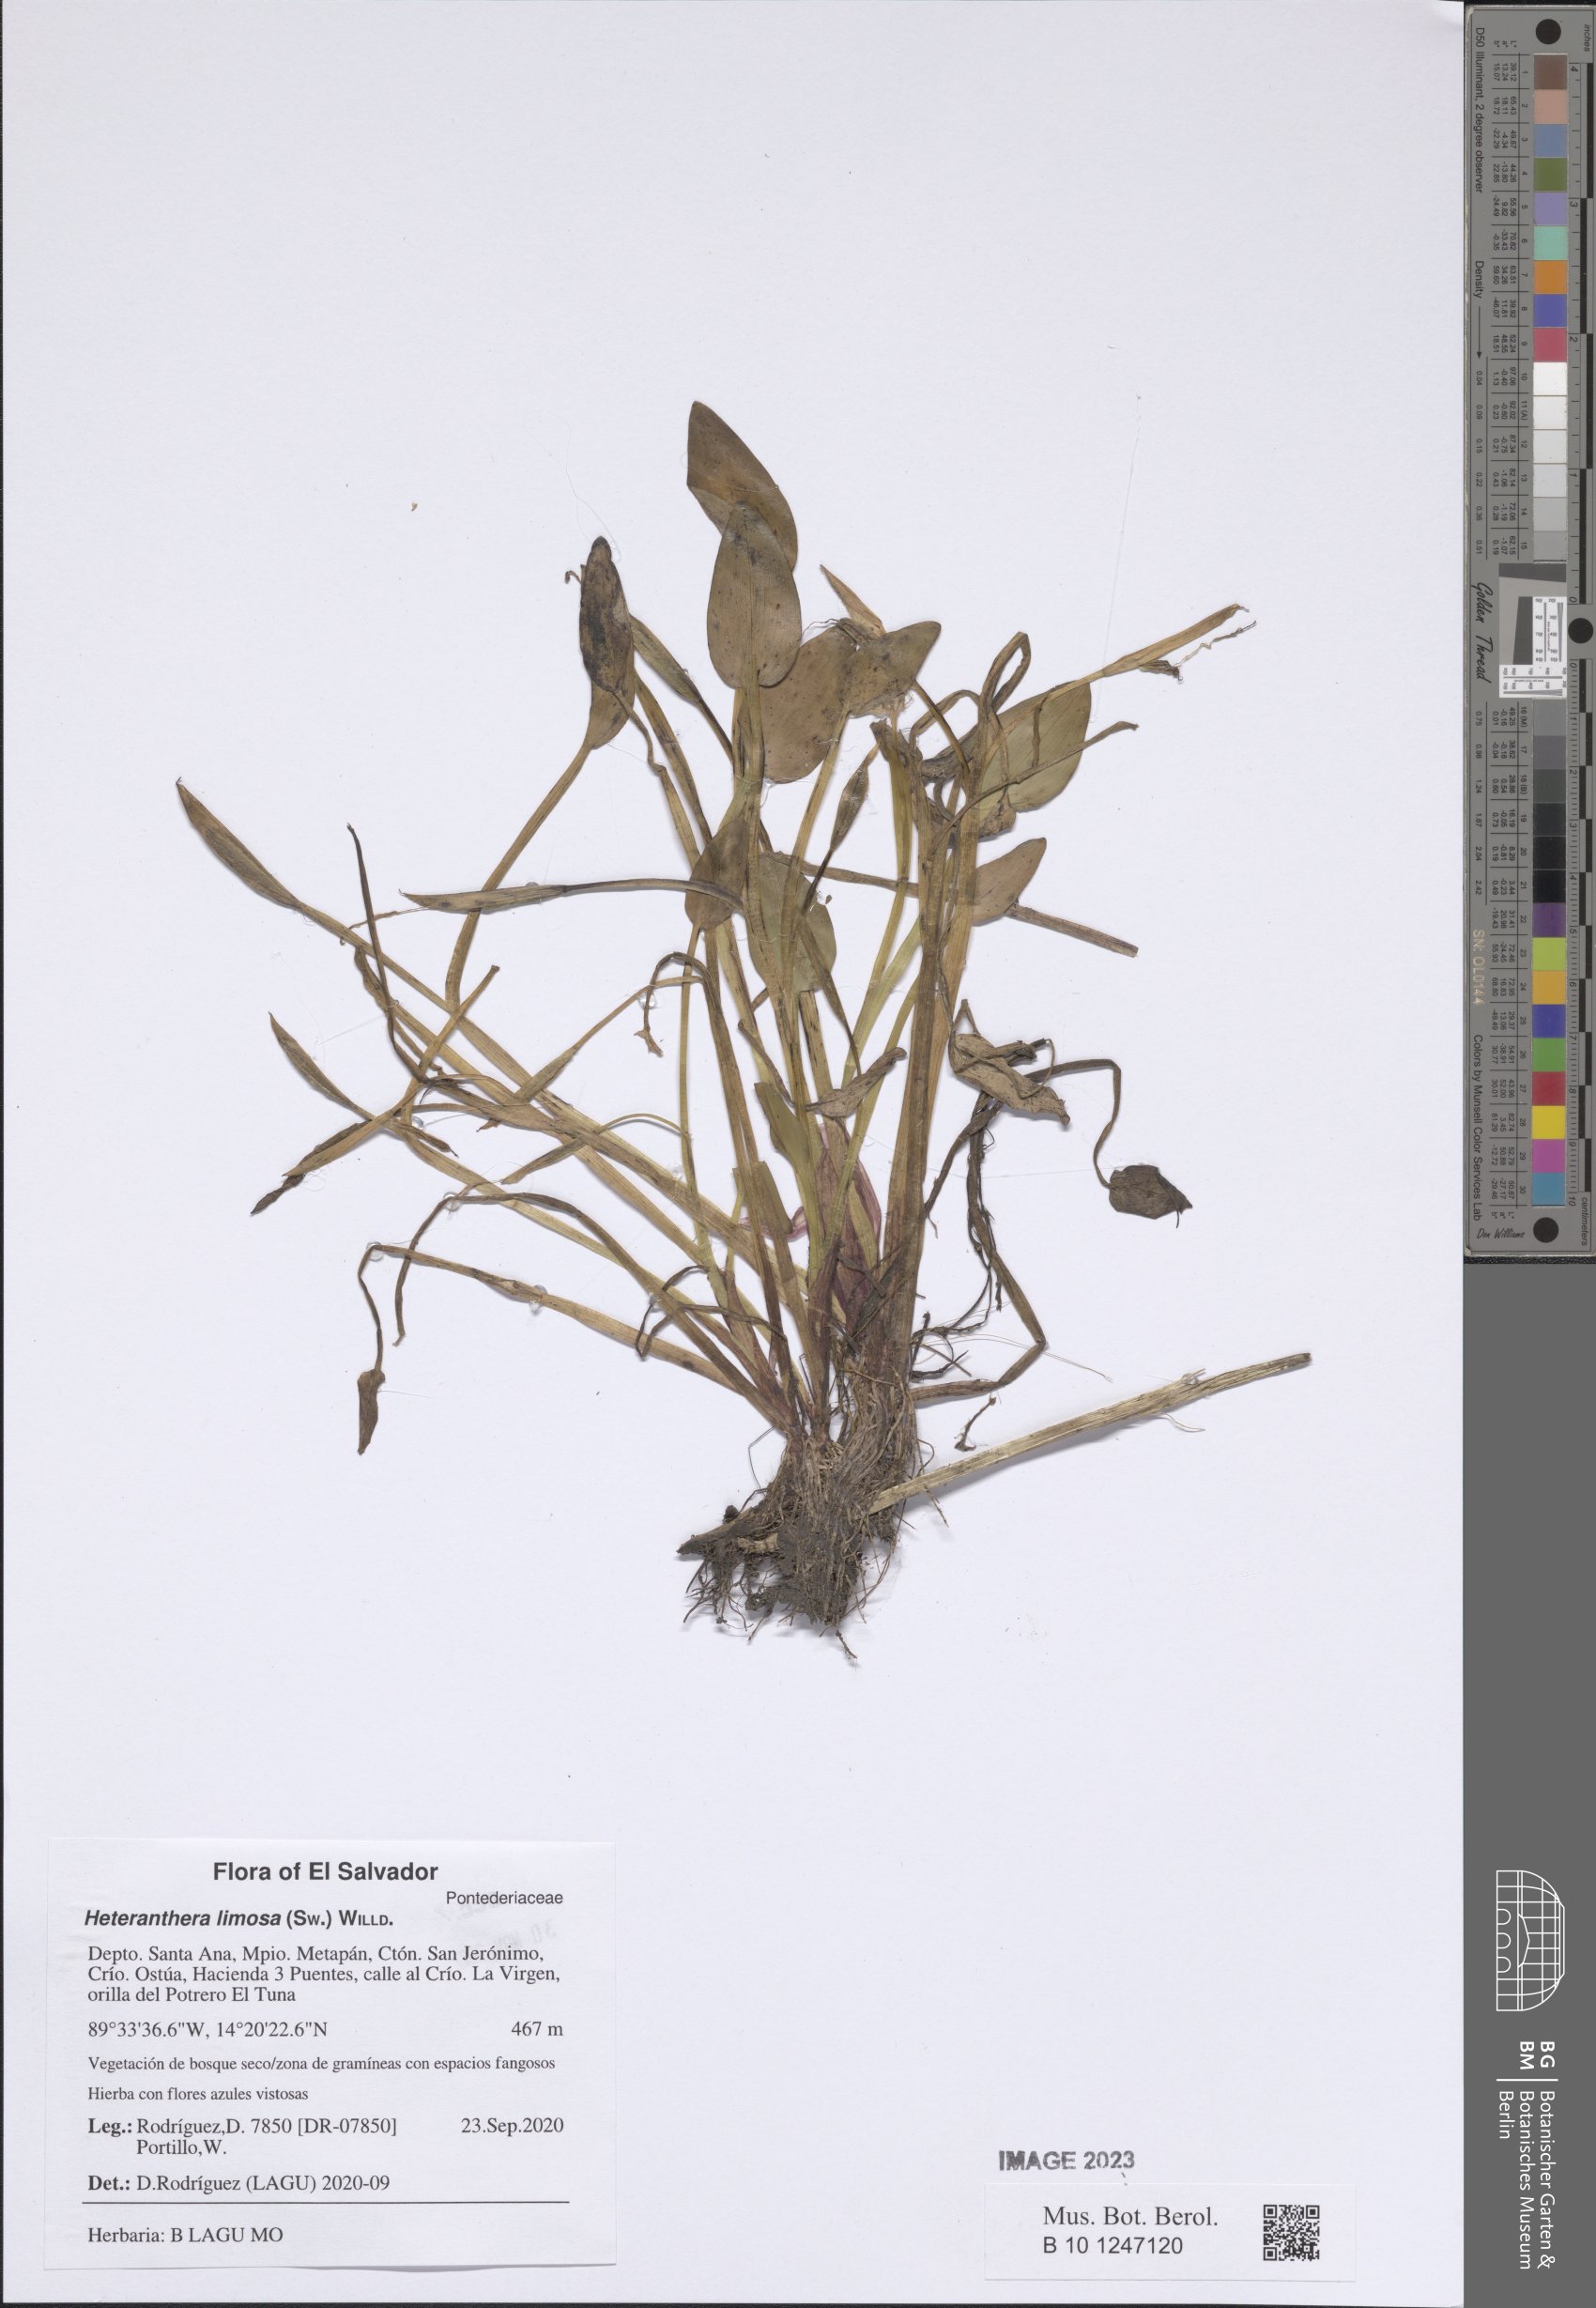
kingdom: Plantae
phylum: Tracheophyta
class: Liliopsida
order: Commelinales
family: Pontederiaceae
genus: Heteranthera
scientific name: Heteranthera limosa
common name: Blue mud-plantain
